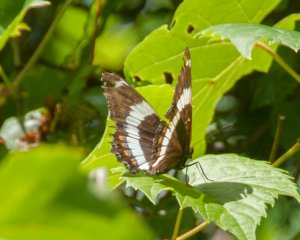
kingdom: Animalia
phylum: Arthropoda
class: Insecta
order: Lepidoptera
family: Nymphalidae
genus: Limenitis
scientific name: Limenitis arthemis
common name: Red-spotted Admiral
